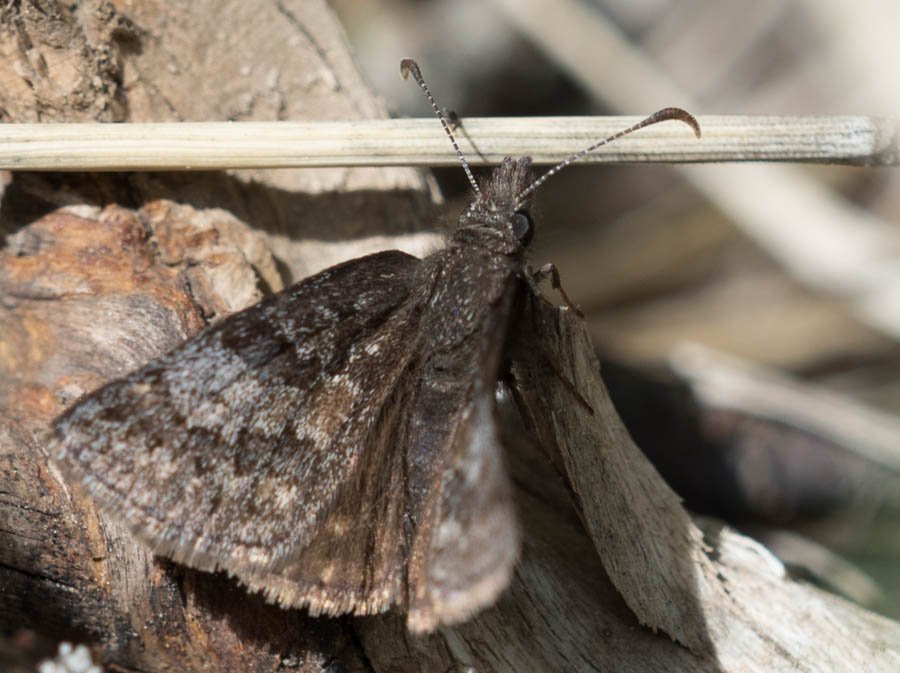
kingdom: Animalia
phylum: Arthropoda
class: Insecta
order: Lepidoptera
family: Hesperiidae
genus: Erynnis
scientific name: Erynnis icelus
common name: Dreamy Duskywing
